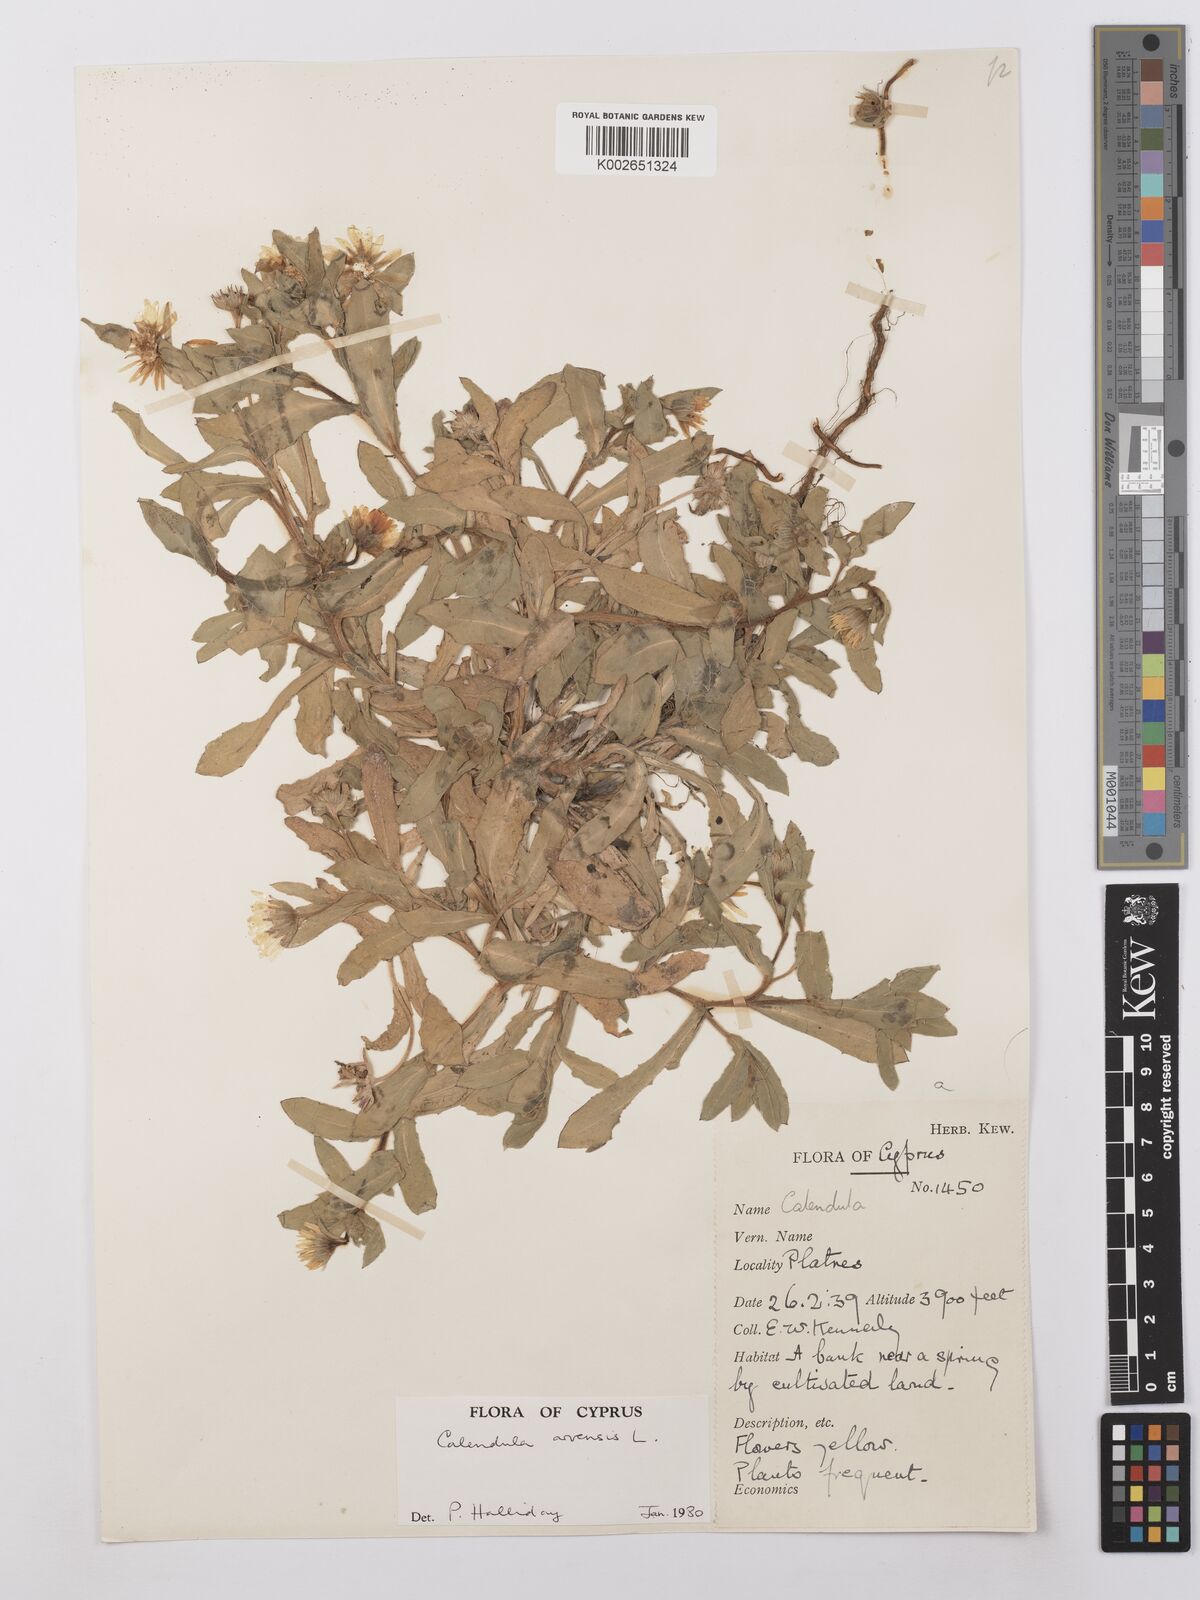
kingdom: Plantae
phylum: Tracheophyta
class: Magnoliopsida
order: Asterales
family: Asteraceae
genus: Calendula
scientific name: Calendula arvensis
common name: Field marigold
